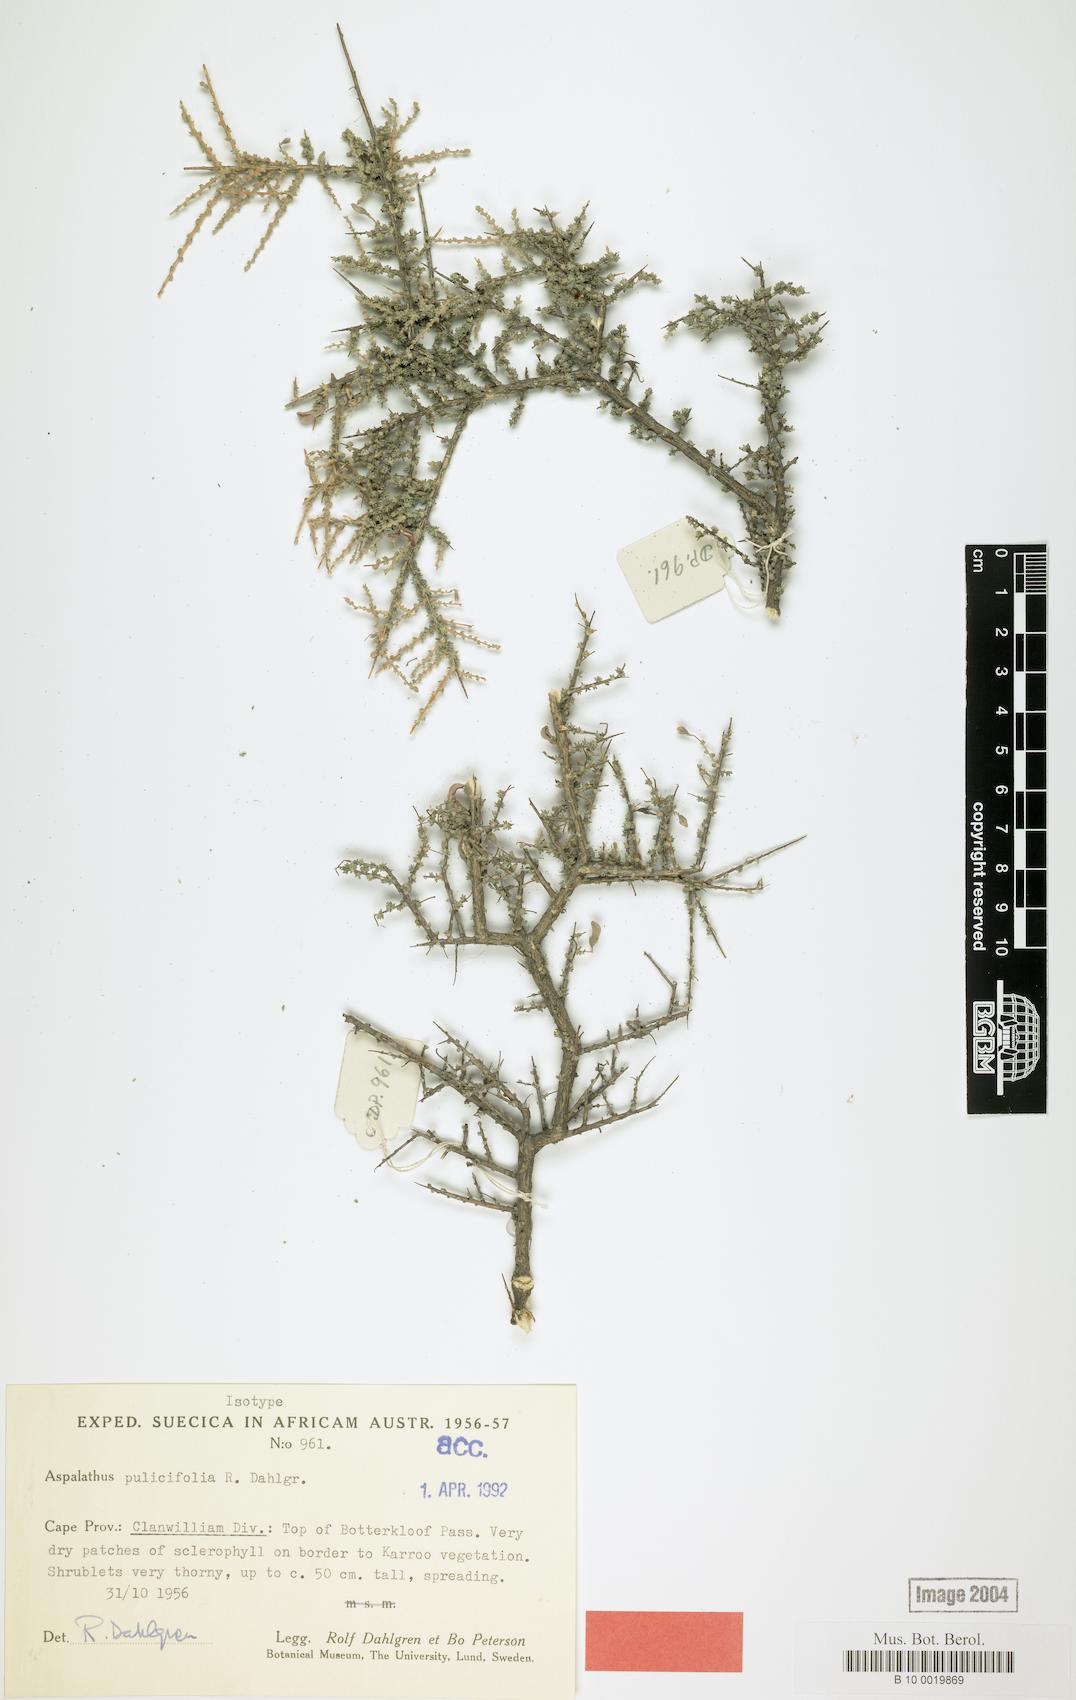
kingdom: Plantae
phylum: Tracheophyta
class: Magnoliopsida
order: Fabales
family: Fabaceae
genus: Aspalathus
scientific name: Aspalathus pulicifolia
